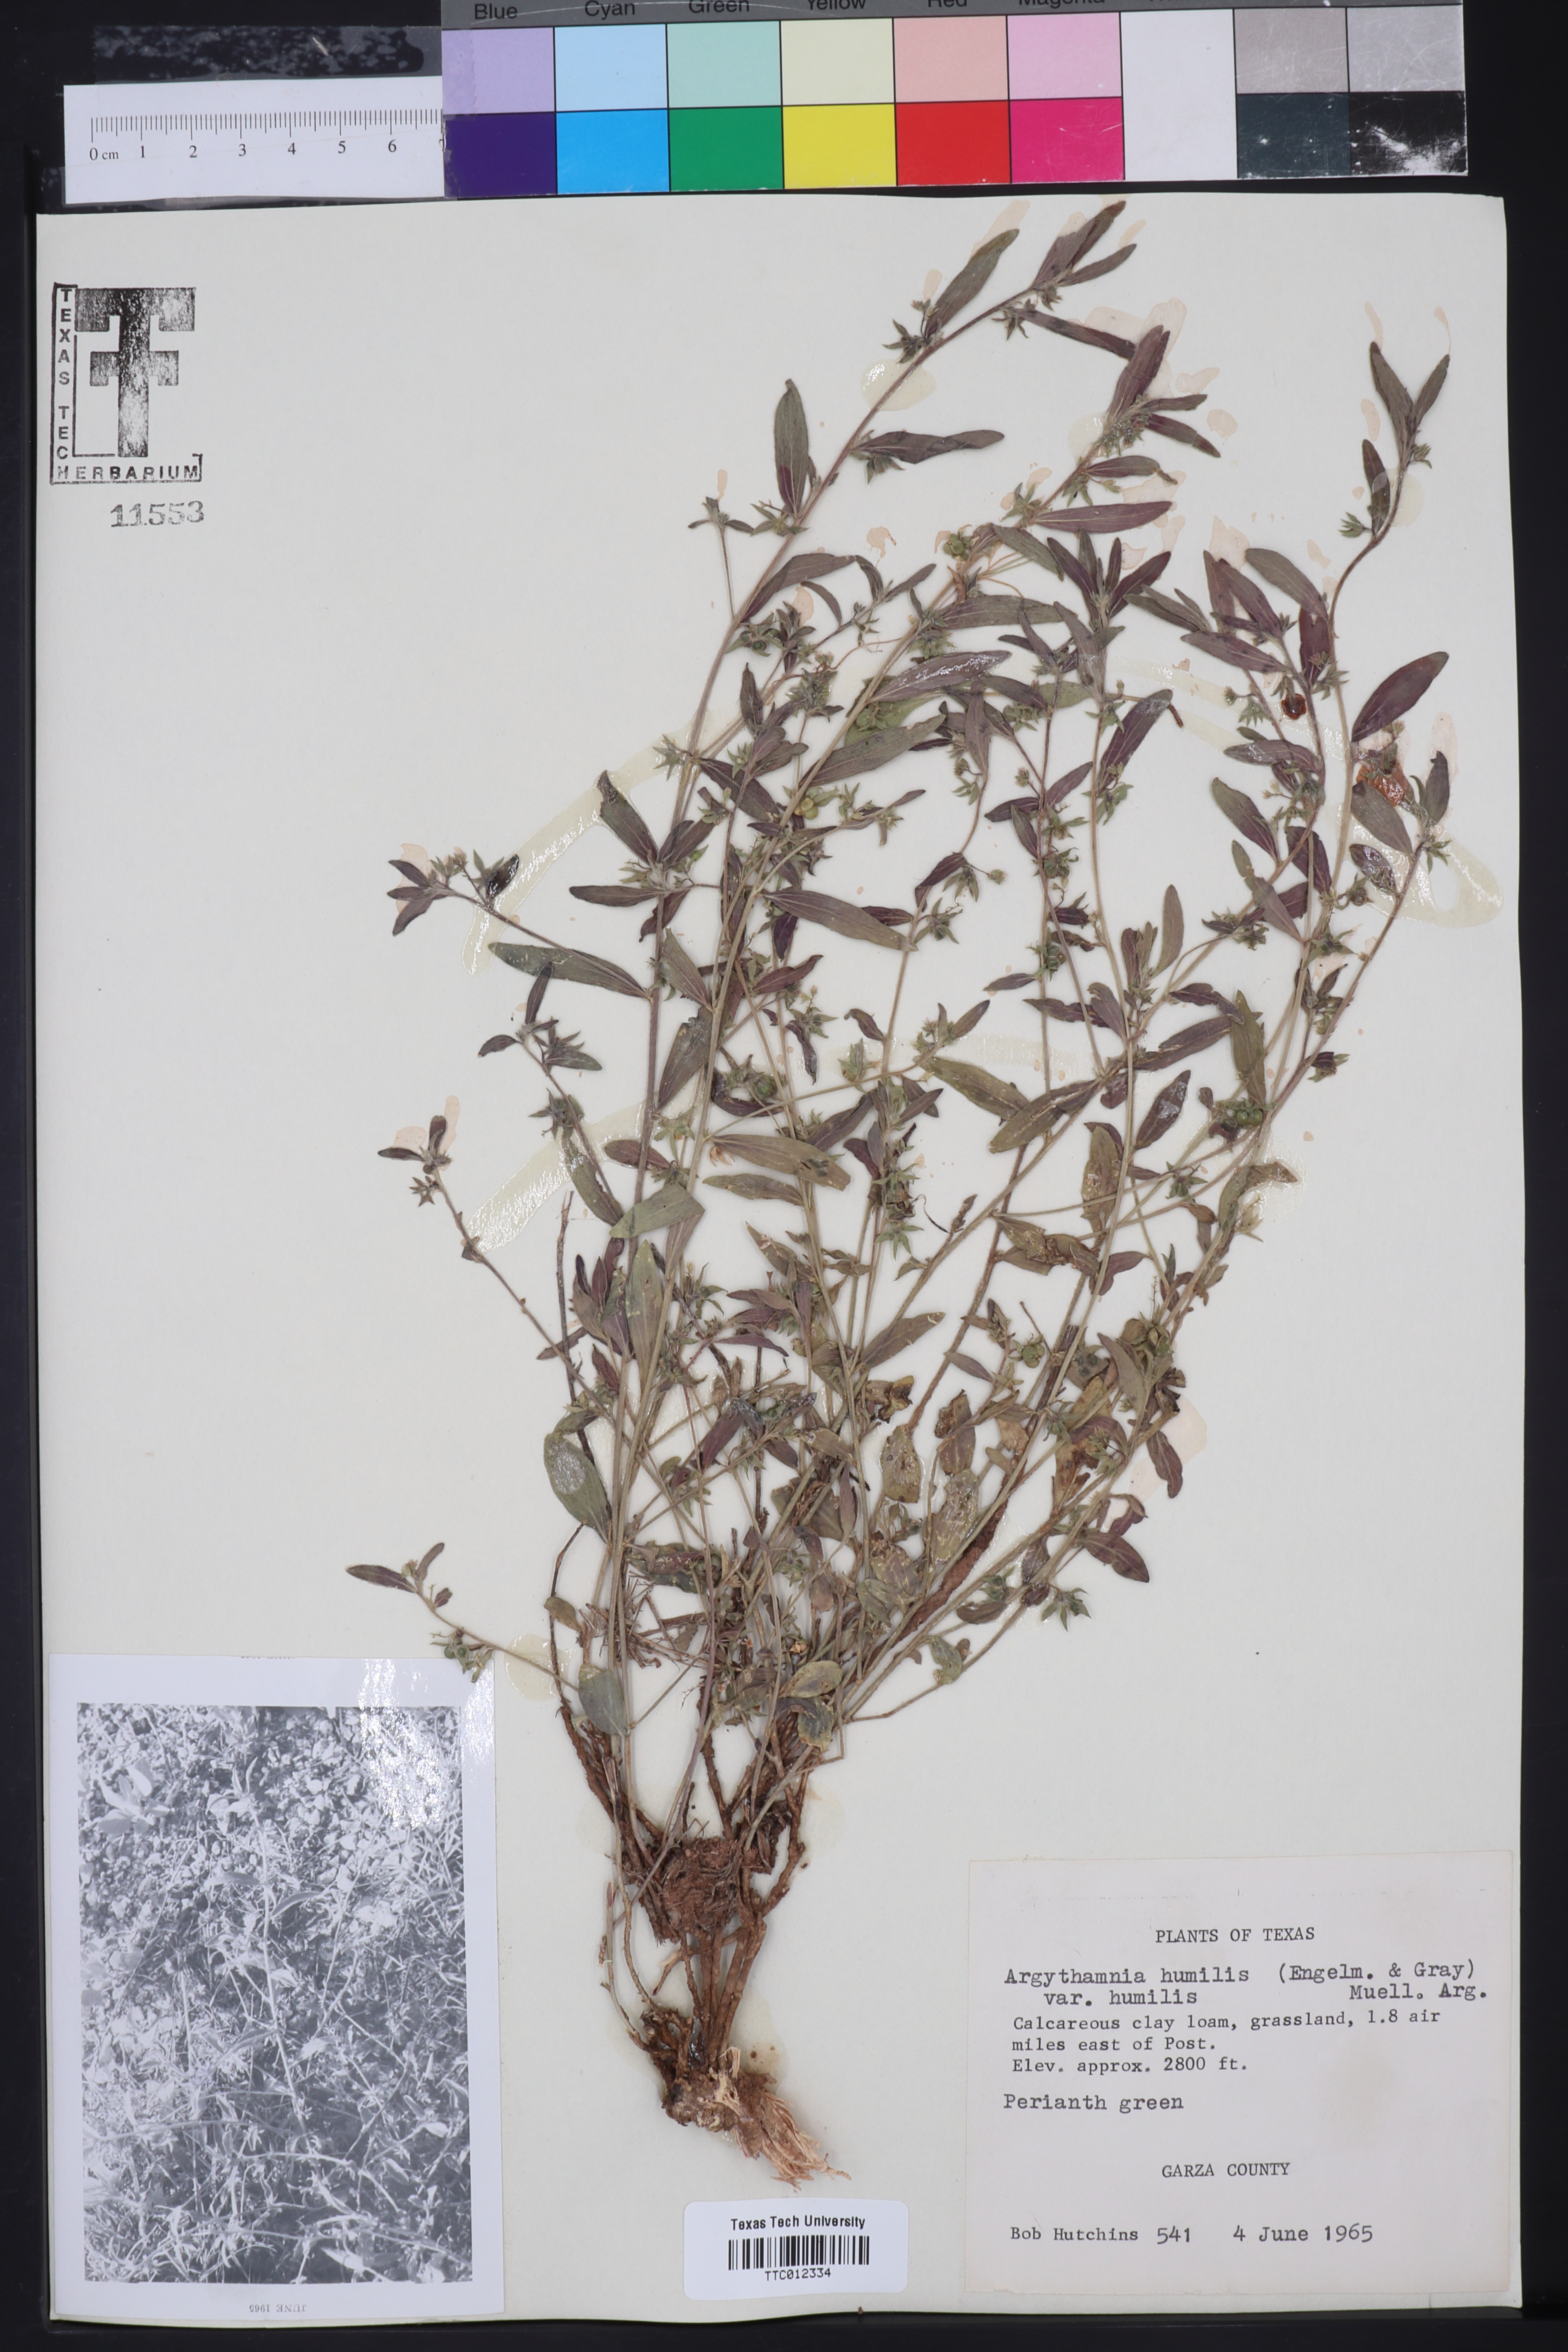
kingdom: Plantae
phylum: Tracheophyta
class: Magnoliopsida
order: Malpighiales
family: Euphorbiaceae
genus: Ditaxis
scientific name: Ditaxis humilis
